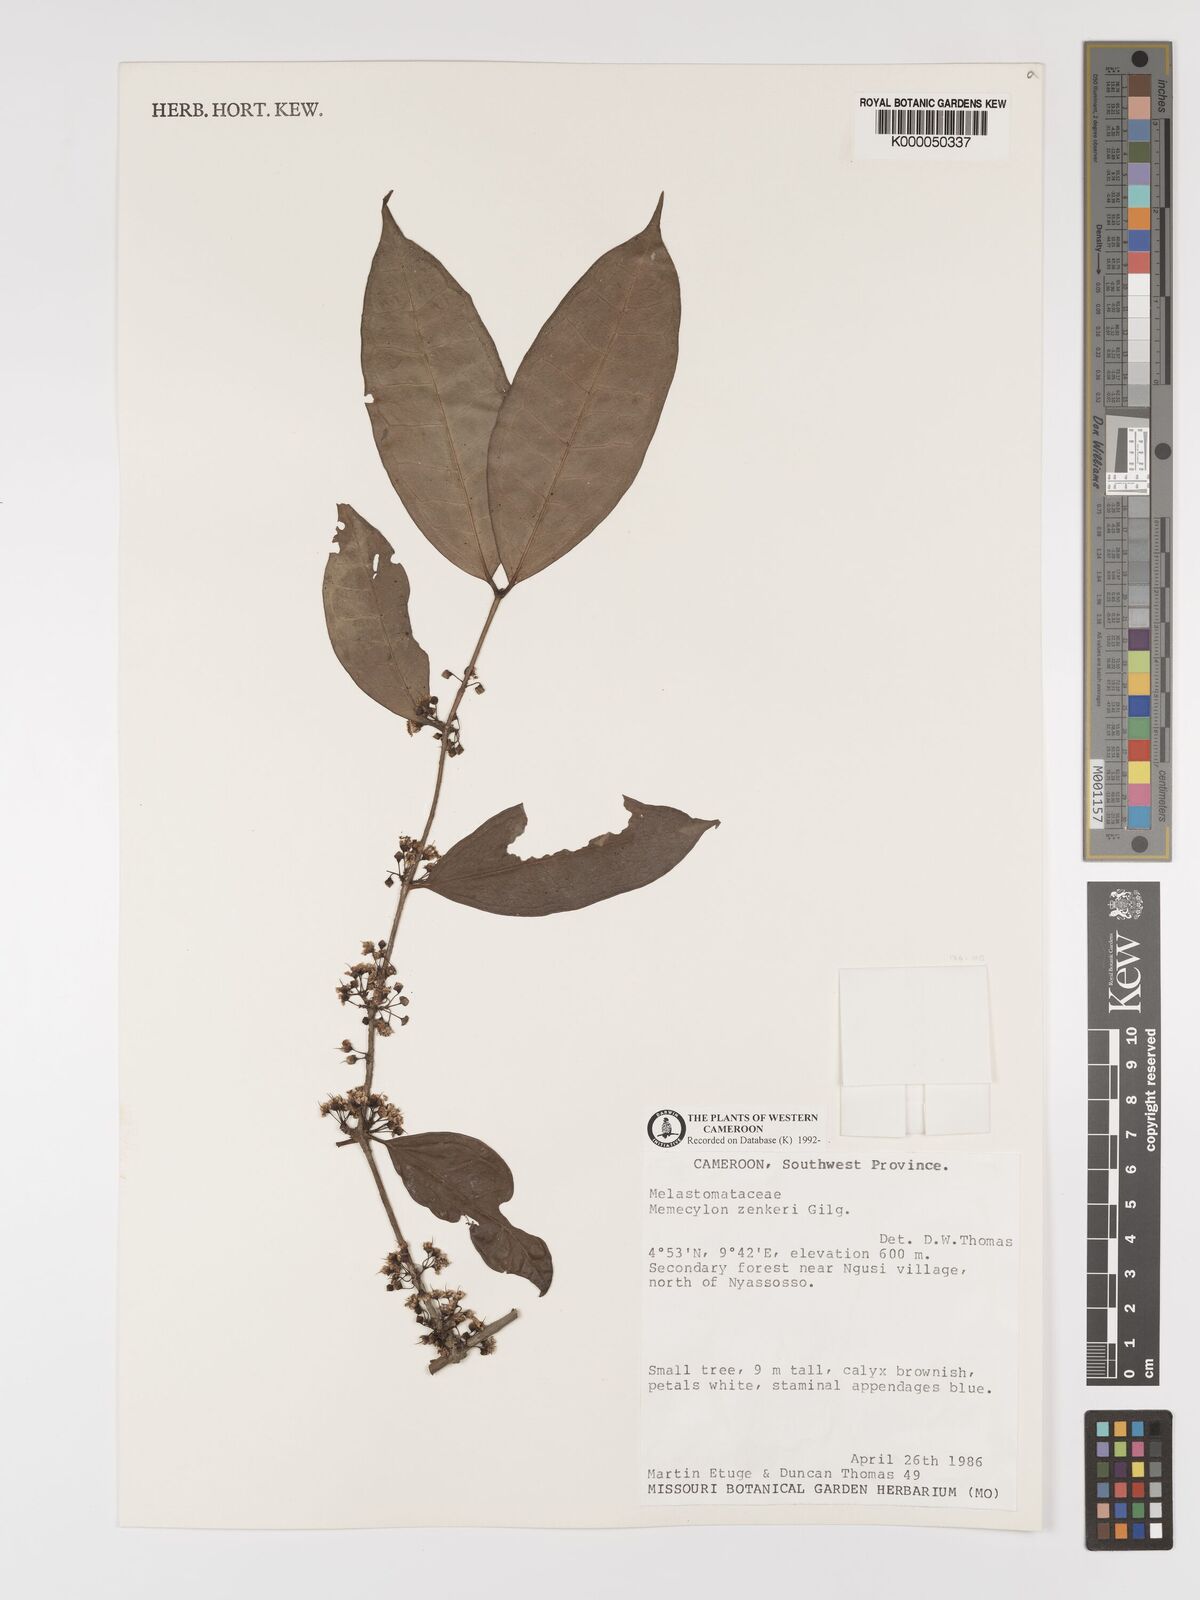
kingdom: Plantae
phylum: Tracheophyta
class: Magnoliopsida
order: Myrtales
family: Melastomataceae
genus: Memecylon
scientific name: Memecylon zenkeri
